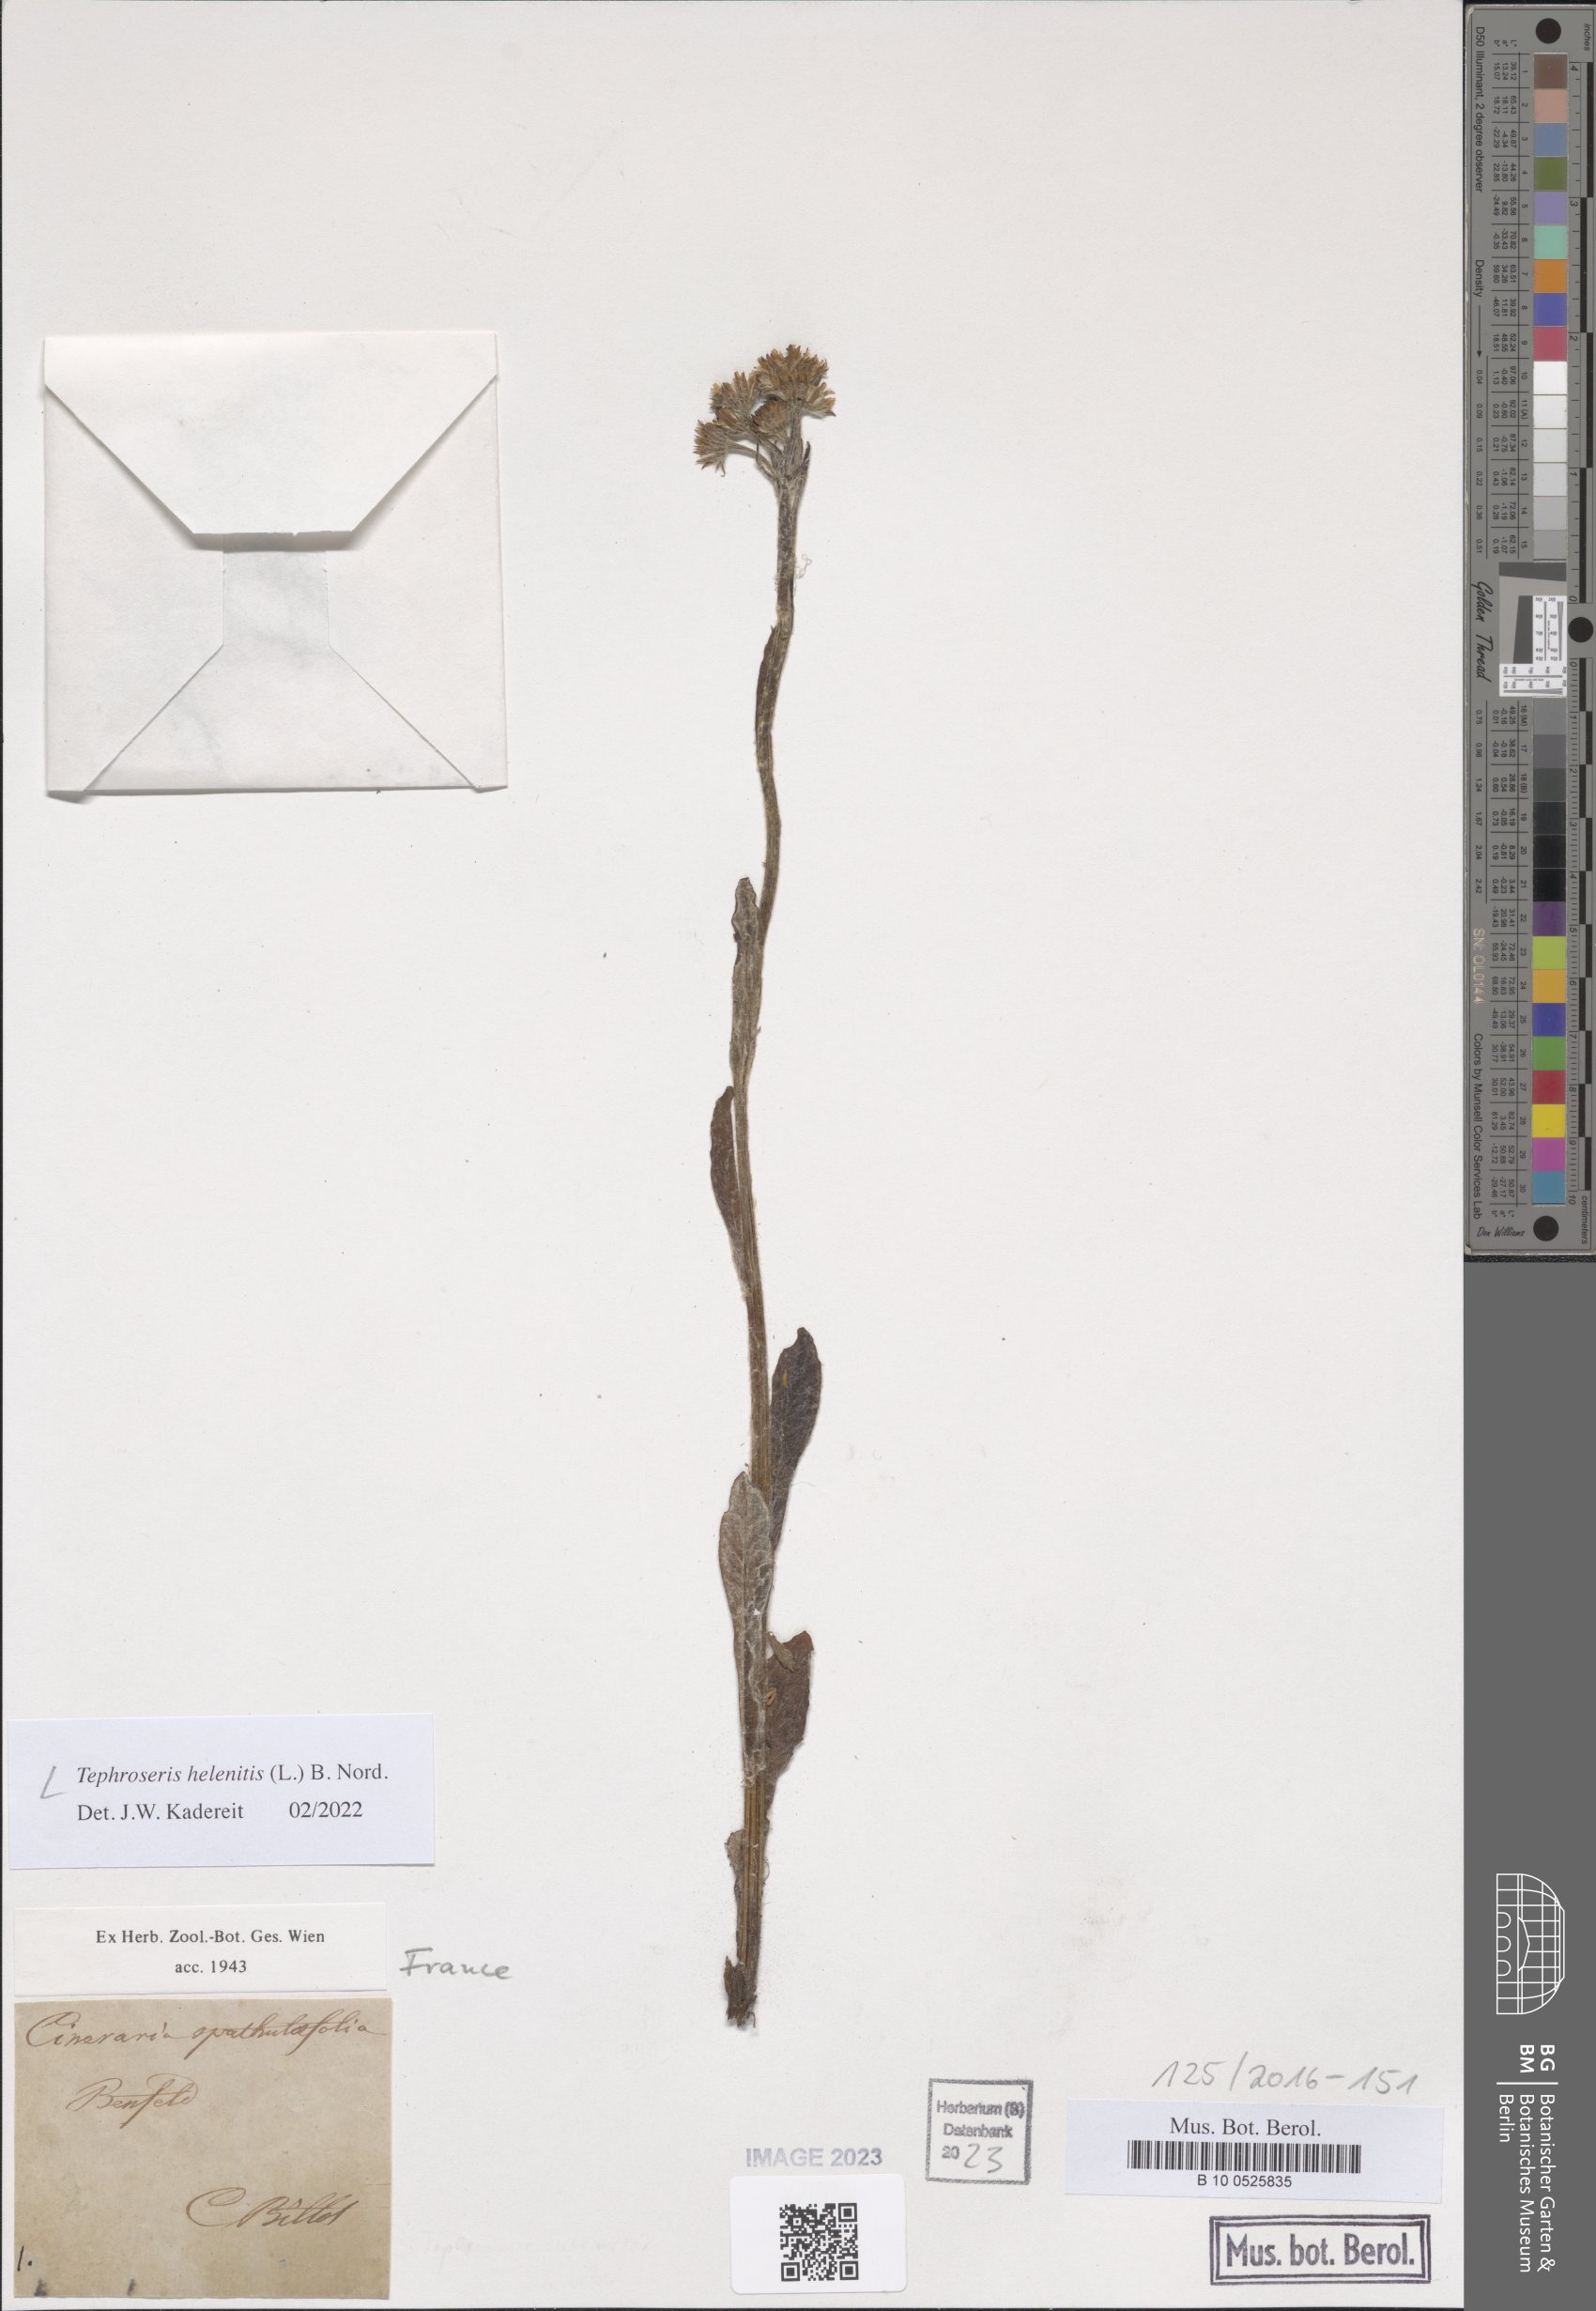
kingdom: Plantae
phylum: Tracheophyta
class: Magnoliopsida
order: Asterales
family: Asteraceae
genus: Tephroseris
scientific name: Tephroseris helenitis
